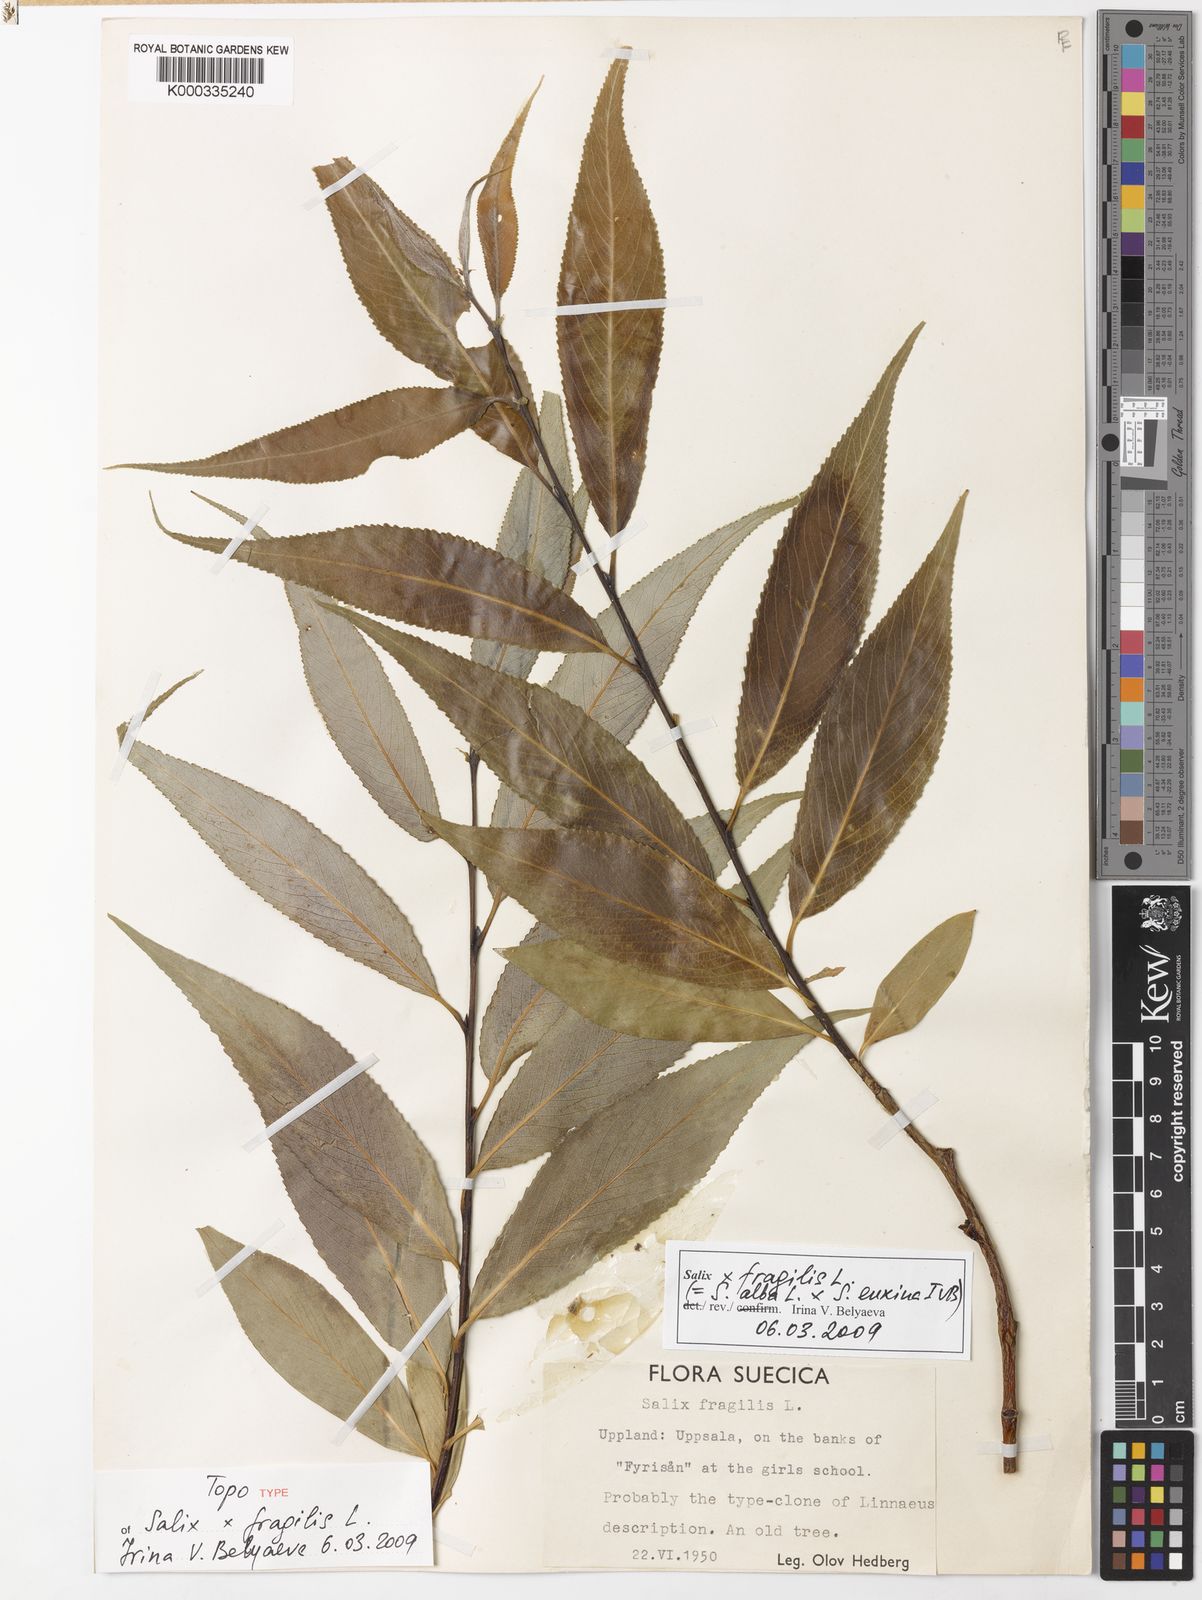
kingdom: Plantae
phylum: Tracheophyta
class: Magnoliopsida
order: Malpighiales
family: Salicaceae
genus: Salix
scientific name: Salix
